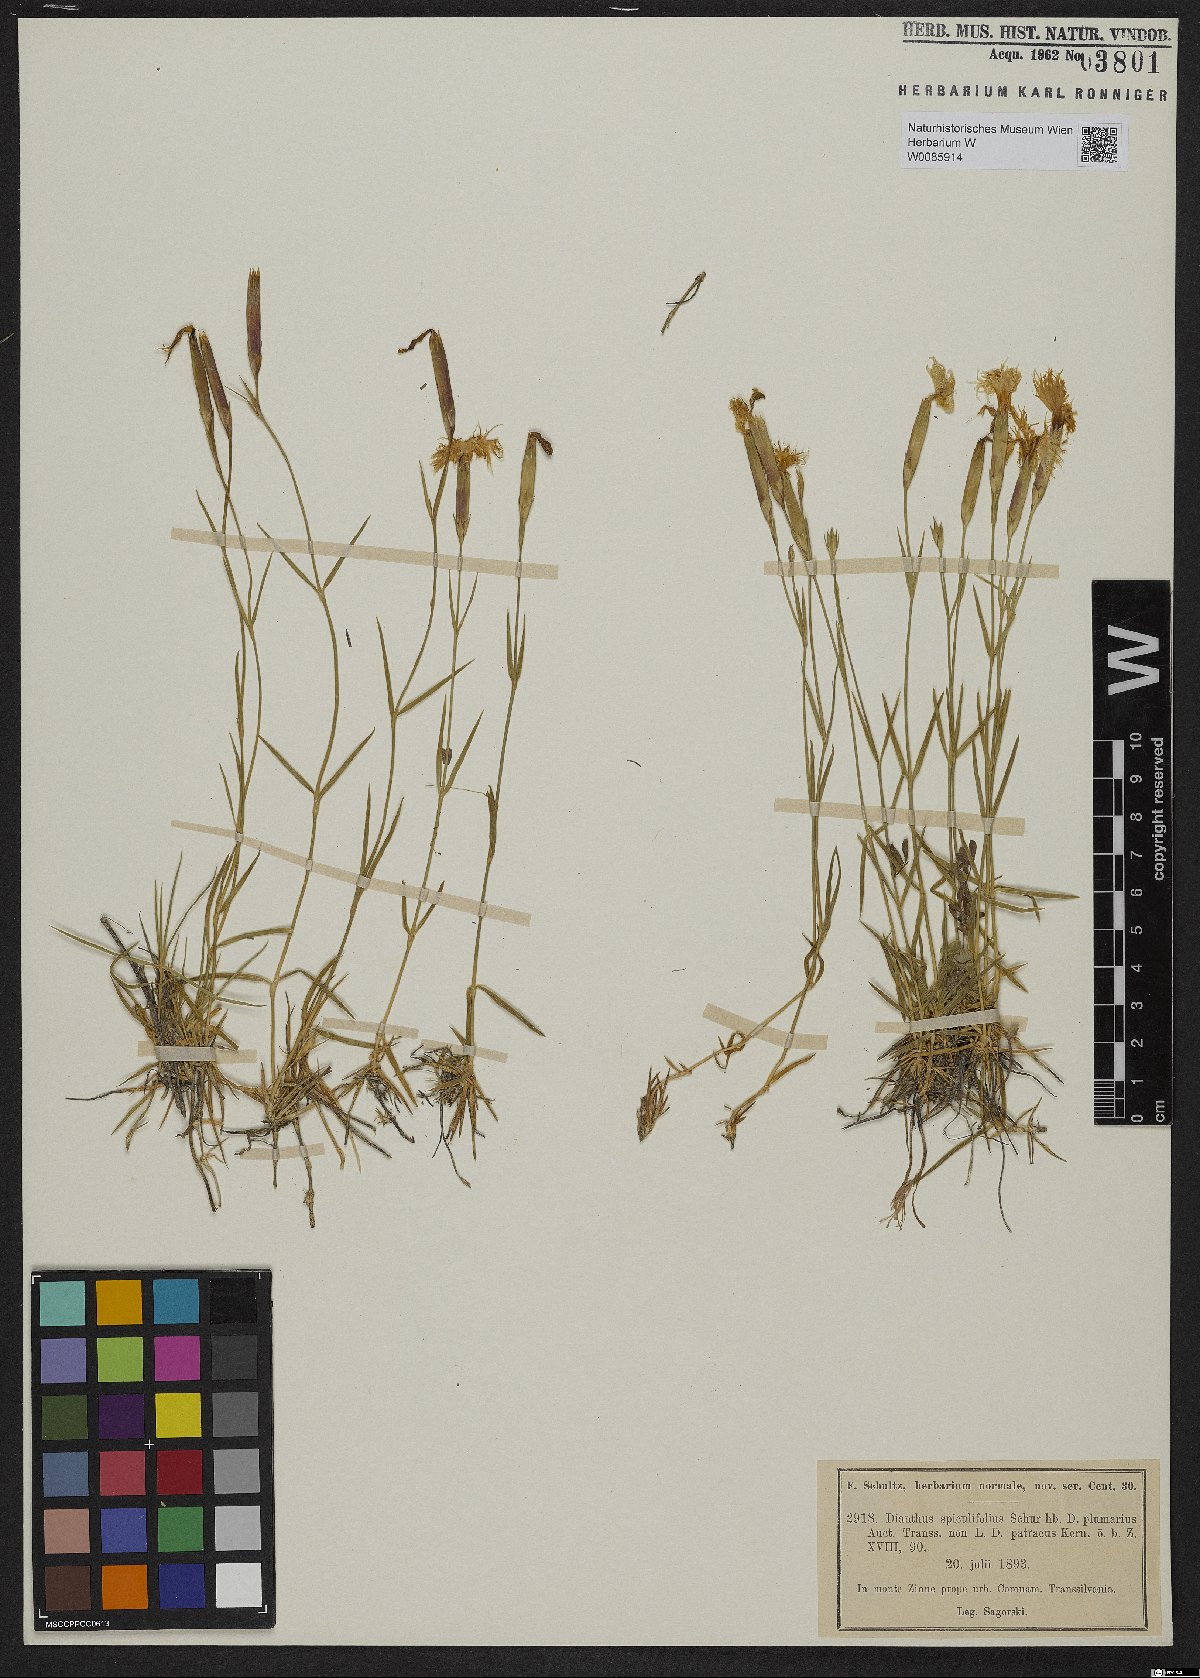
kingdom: Plantae
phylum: Tracheophyta
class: Magnoliopsida
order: Caryophyllales
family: Caryophyllaceae
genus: Dianthus
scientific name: Dianthus spiculifolius
